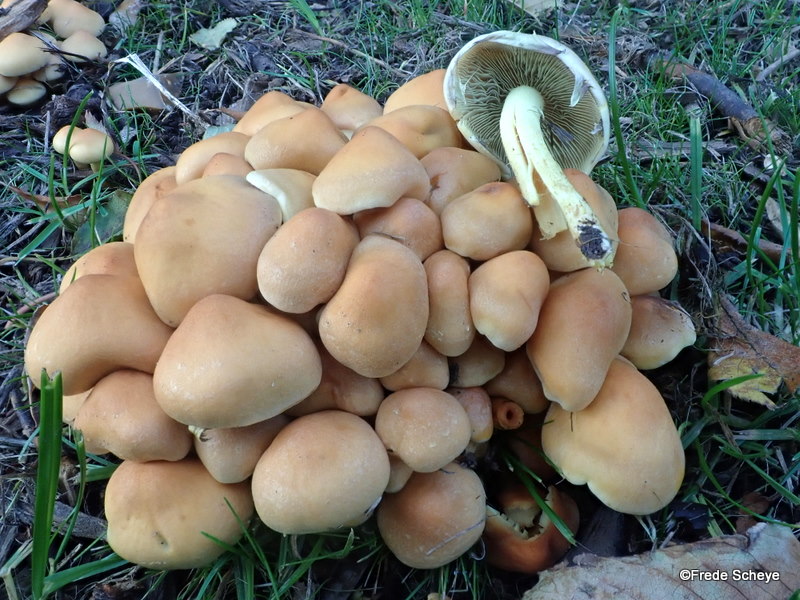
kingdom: Fungi
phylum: Basidiomycota
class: Agaricomycetes
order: Agaricales
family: Strophariaceae
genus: Hypholoma
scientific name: Hypholoma fasciculare
